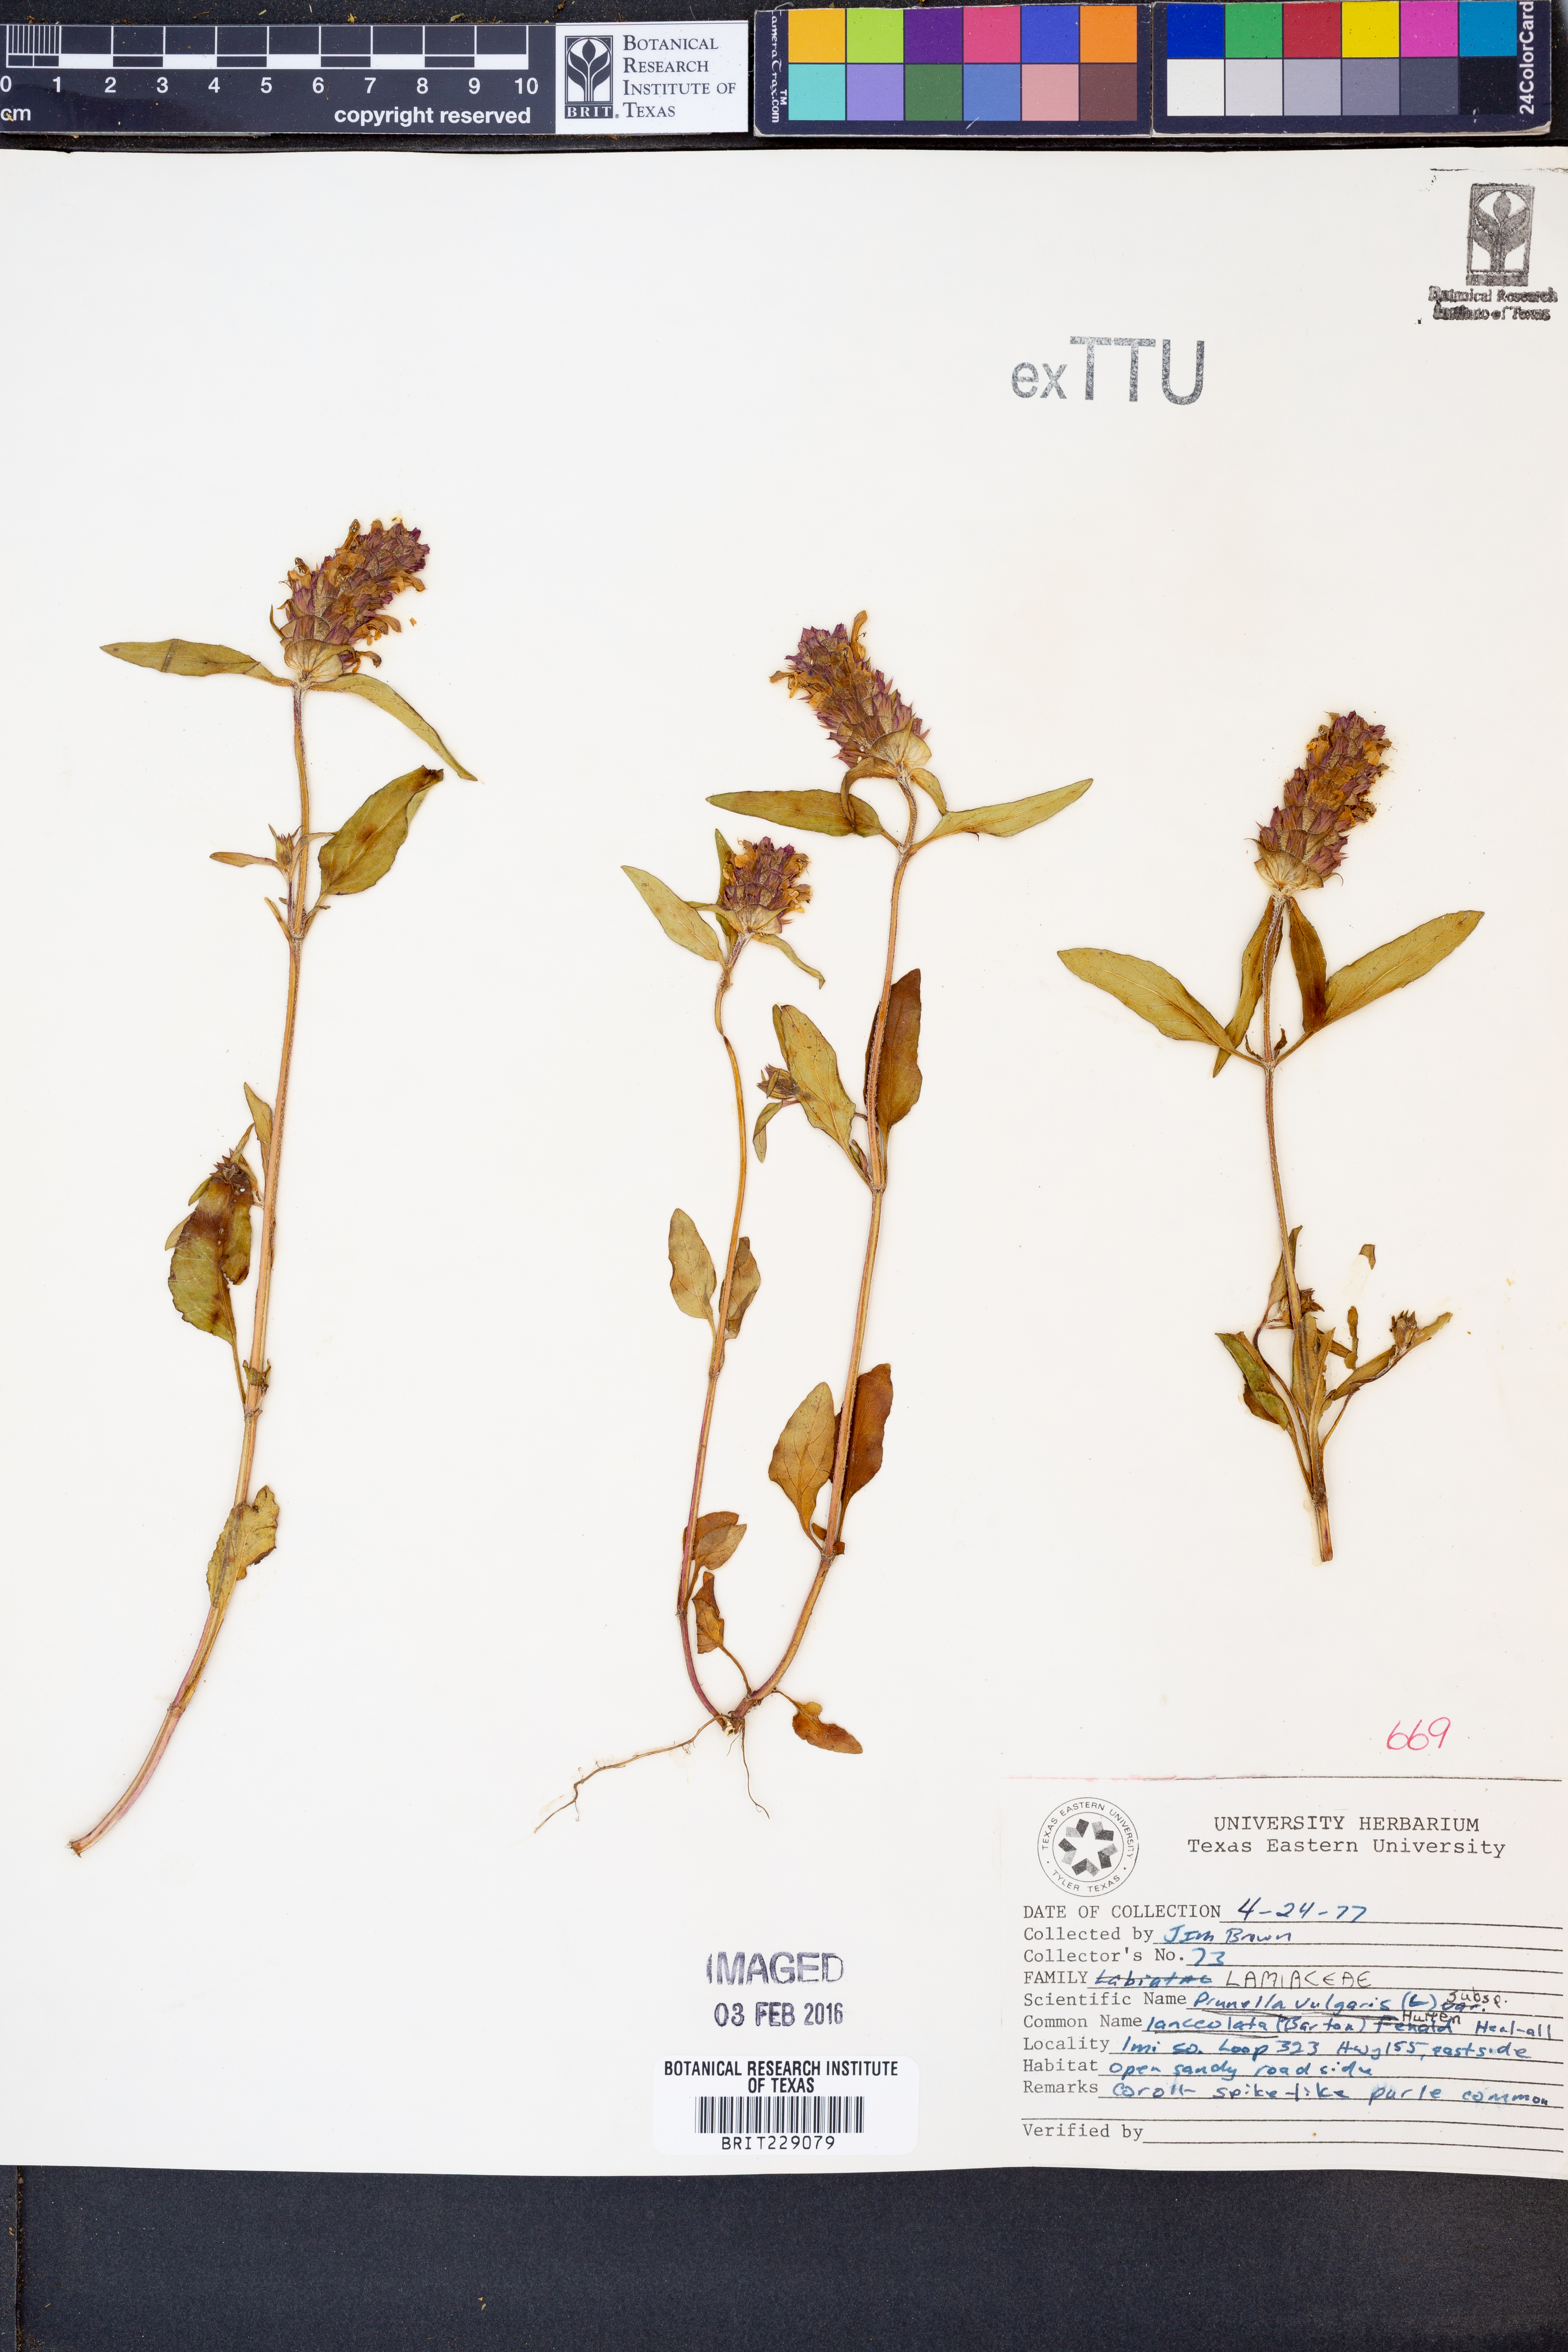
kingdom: Plantae
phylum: Tracheophyta
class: Magnoliopsida
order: Lamiales
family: Lamiaceae
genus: Prunella
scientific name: Prunella vulgaris
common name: Heal-all
